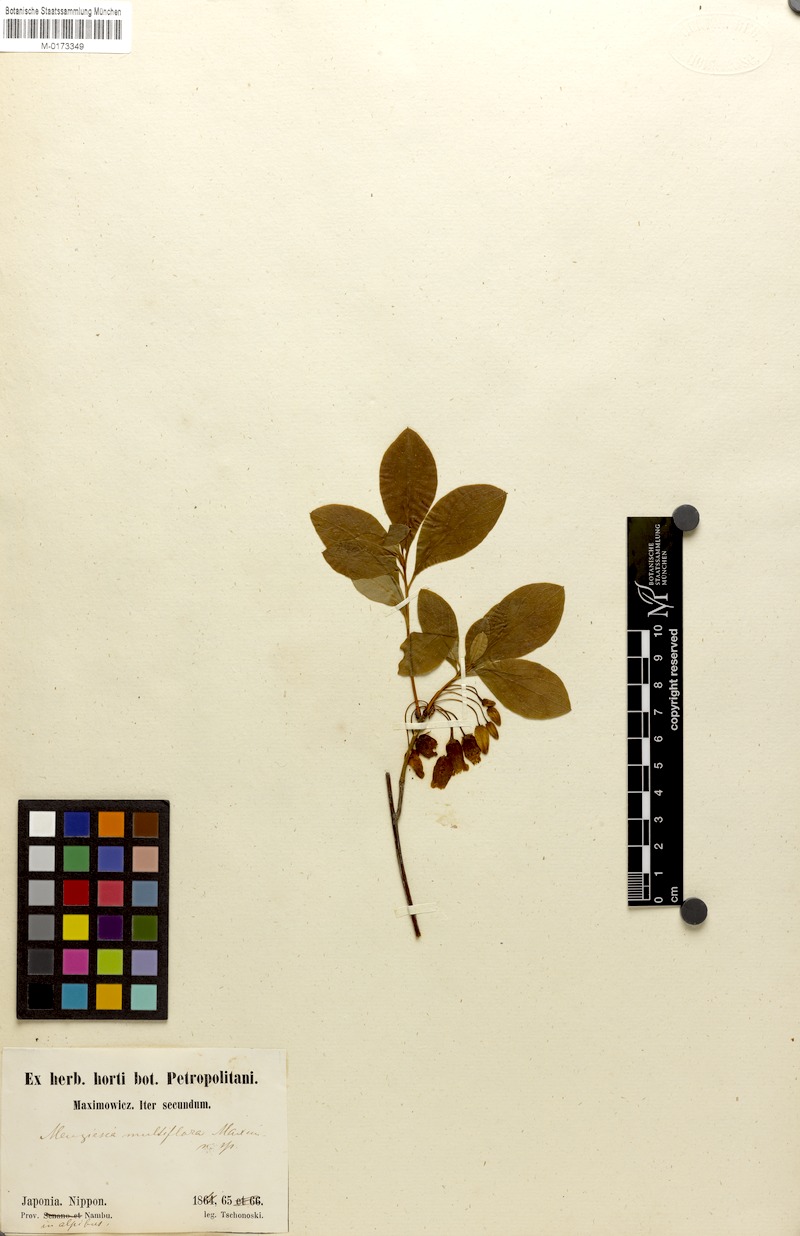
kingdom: Plantae
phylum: Tracheophyta
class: Magnoliopsida
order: Ericales
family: Ericaceae
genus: Rhododendron
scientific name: Rhododendron multiflorum
